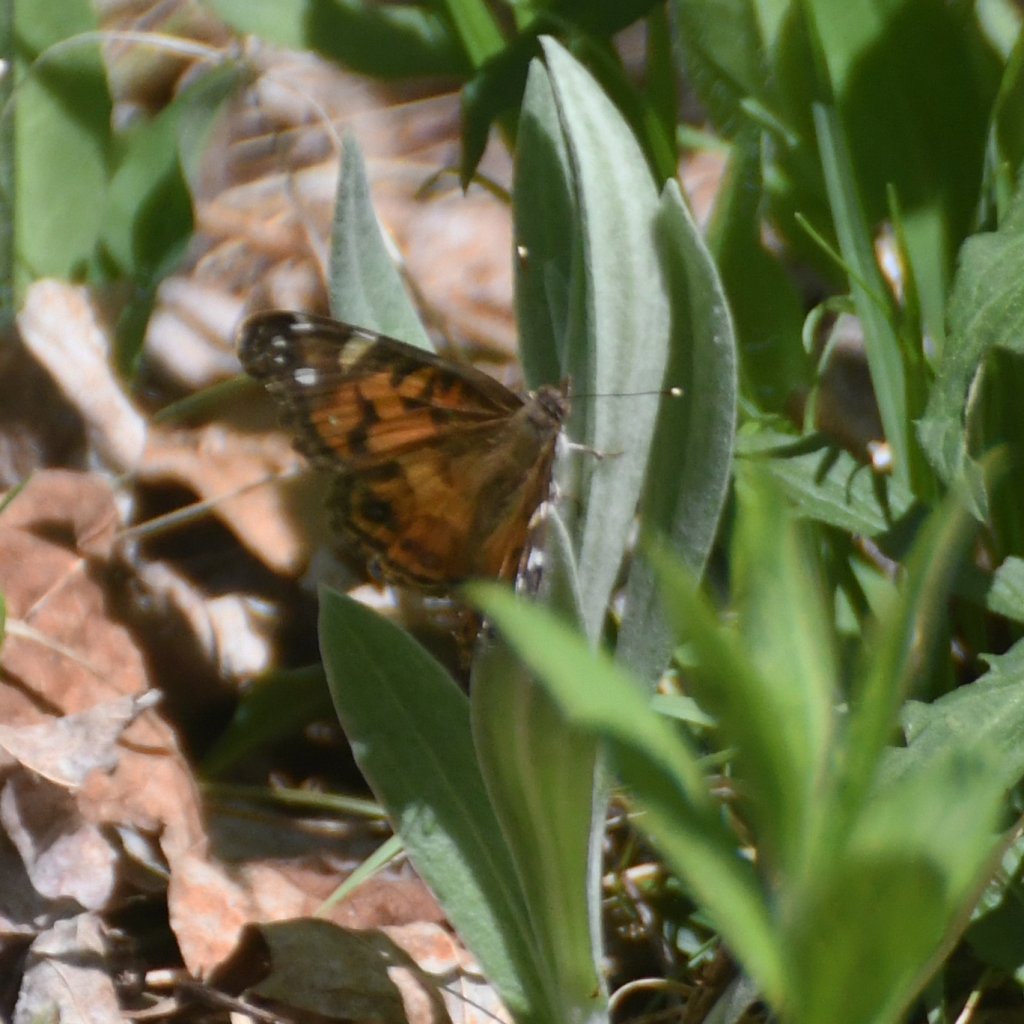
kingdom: Animalia
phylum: Arthropoda
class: Insecta
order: Lepidoptera
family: Nymphalidae
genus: Vanessa
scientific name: Vanessa virginiensis
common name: American Lady
